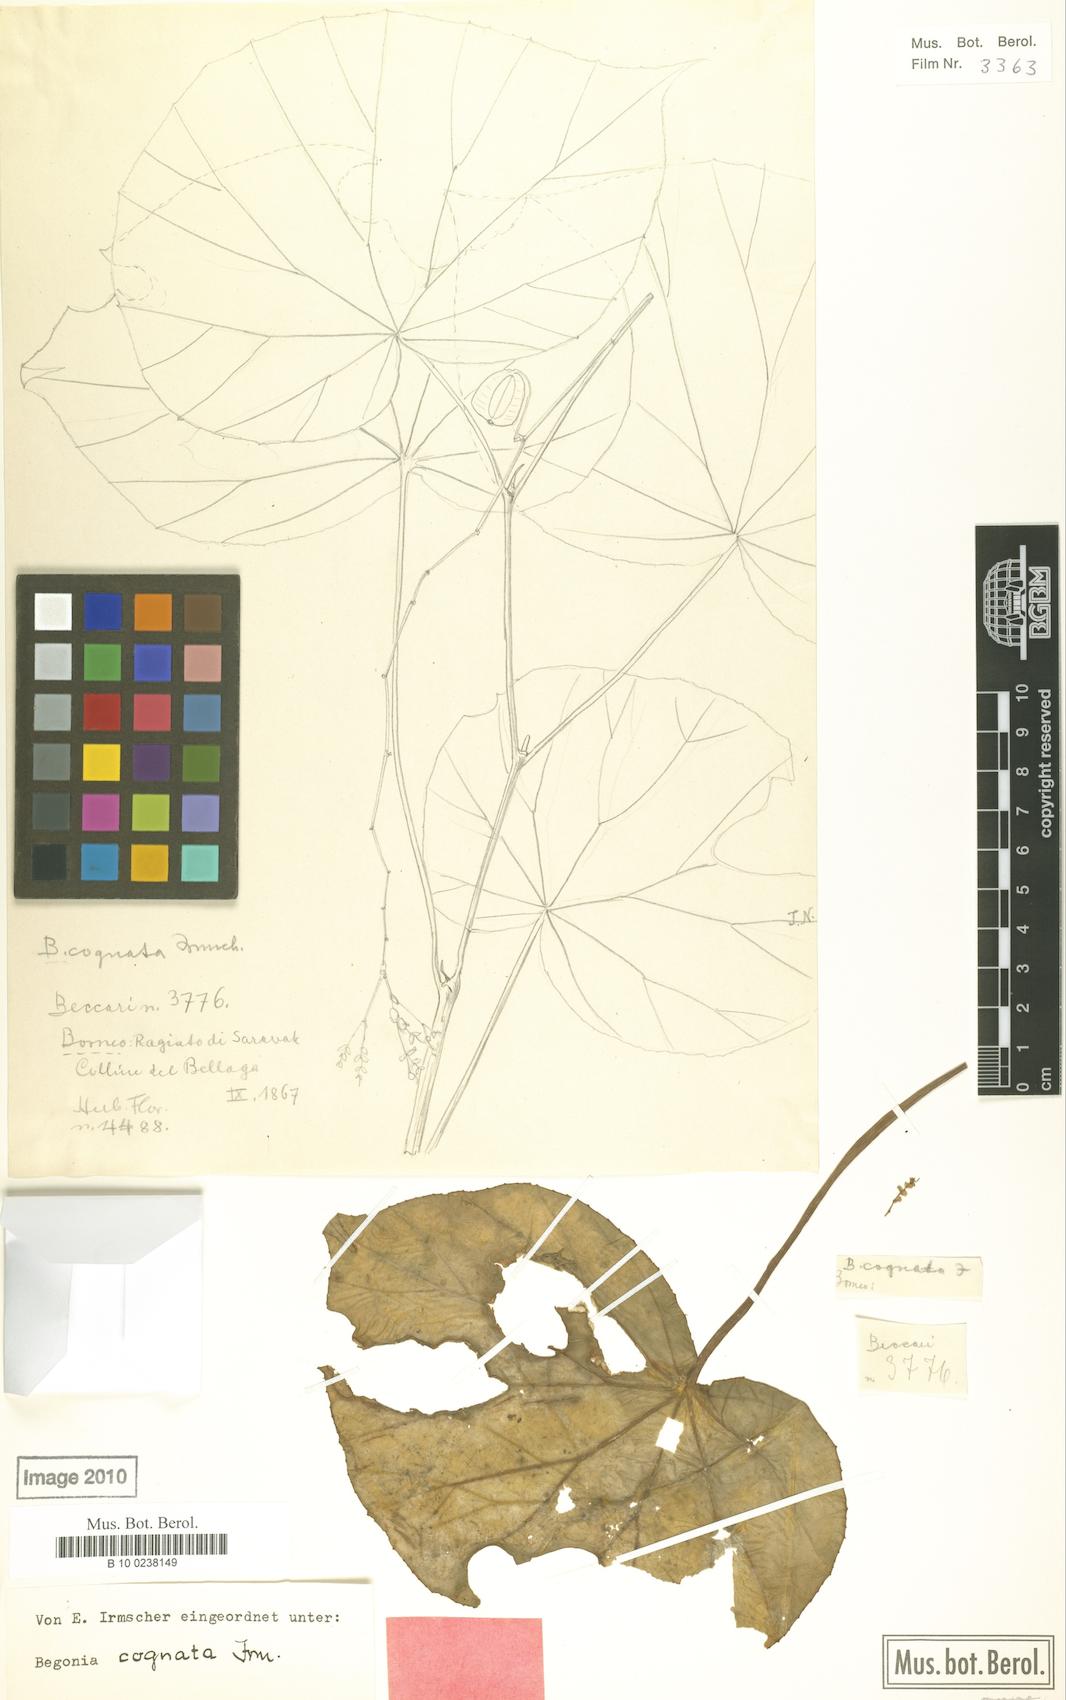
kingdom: Plantae
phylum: Tracheophyta
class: Magnoliopsida
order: Cucurbitales
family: Begoniaceae
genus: Begonia
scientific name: Begonia cognata
